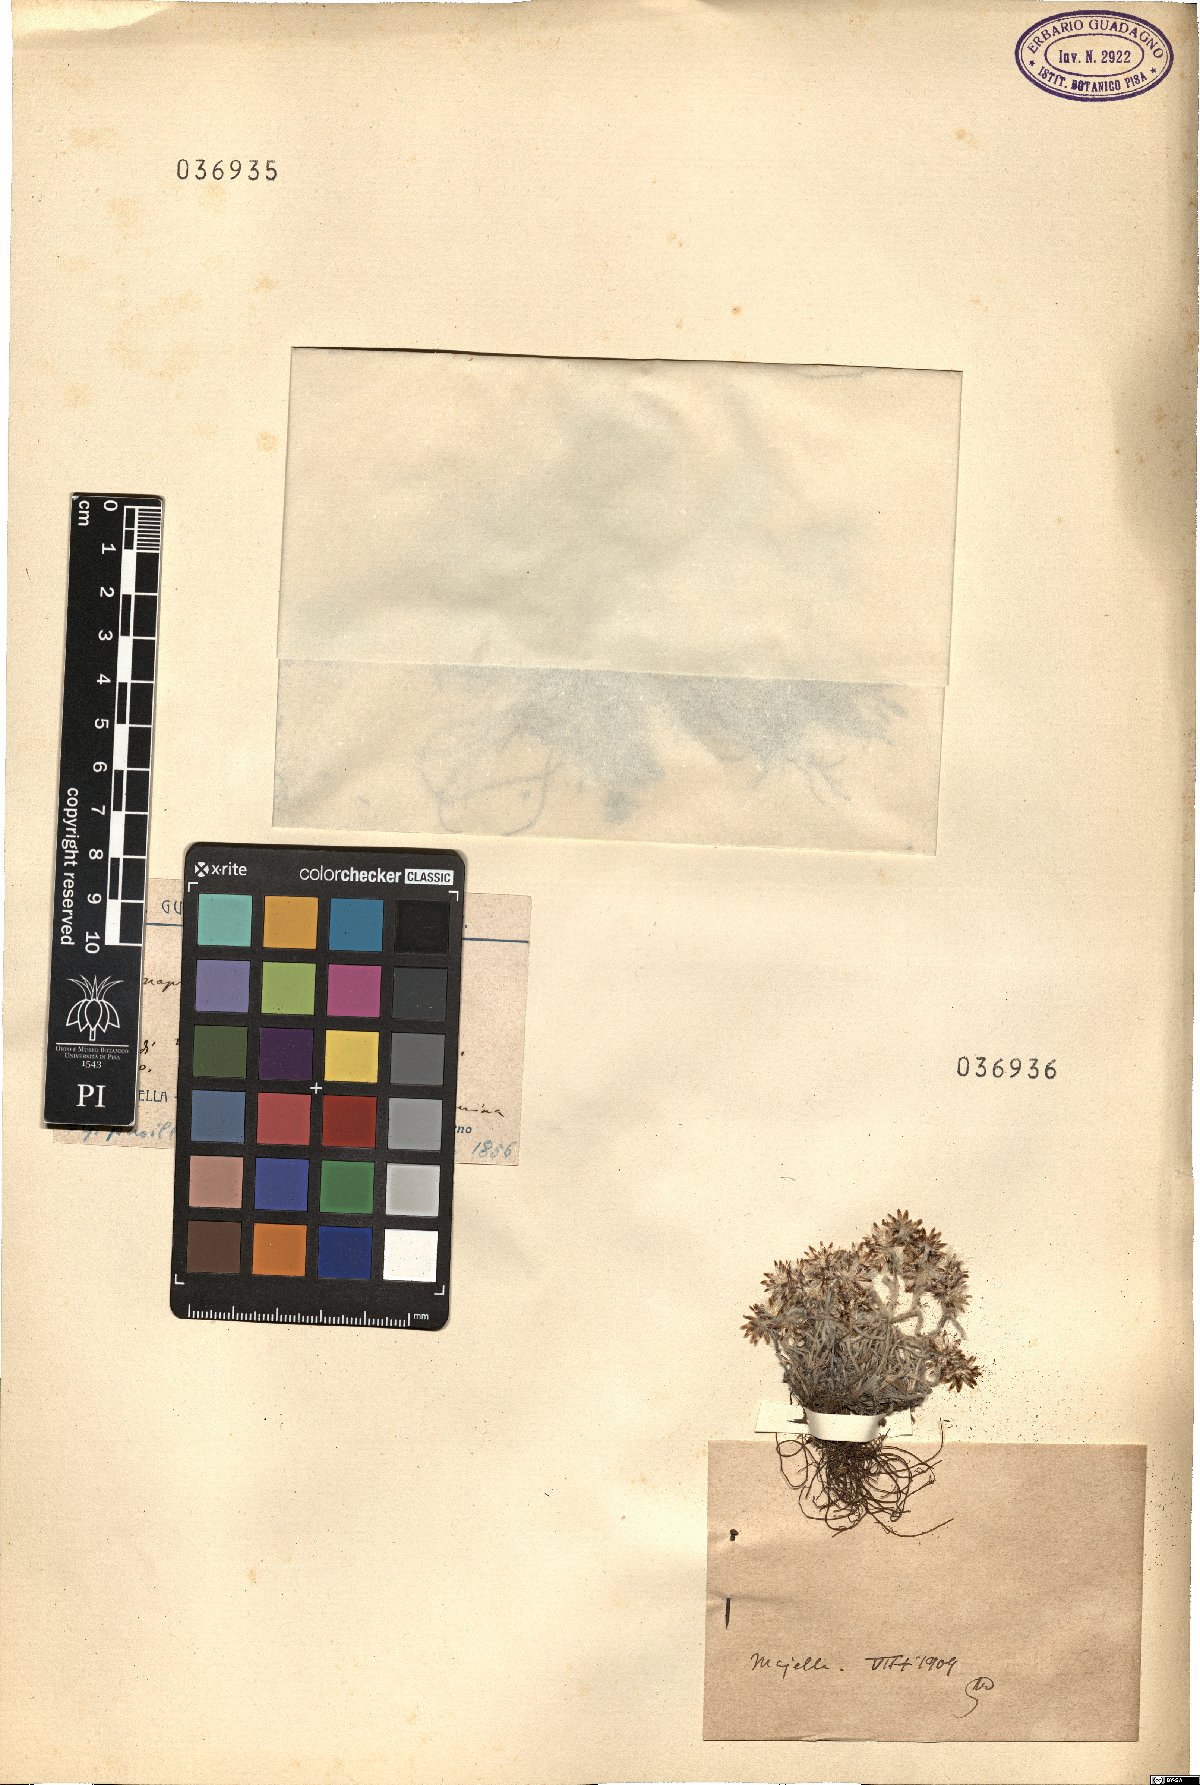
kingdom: Plantae
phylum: Tracheophyta
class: Magnoliopsida
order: Asterales
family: Asteraceae
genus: Omalotheca
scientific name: Omalotheca diminuta
